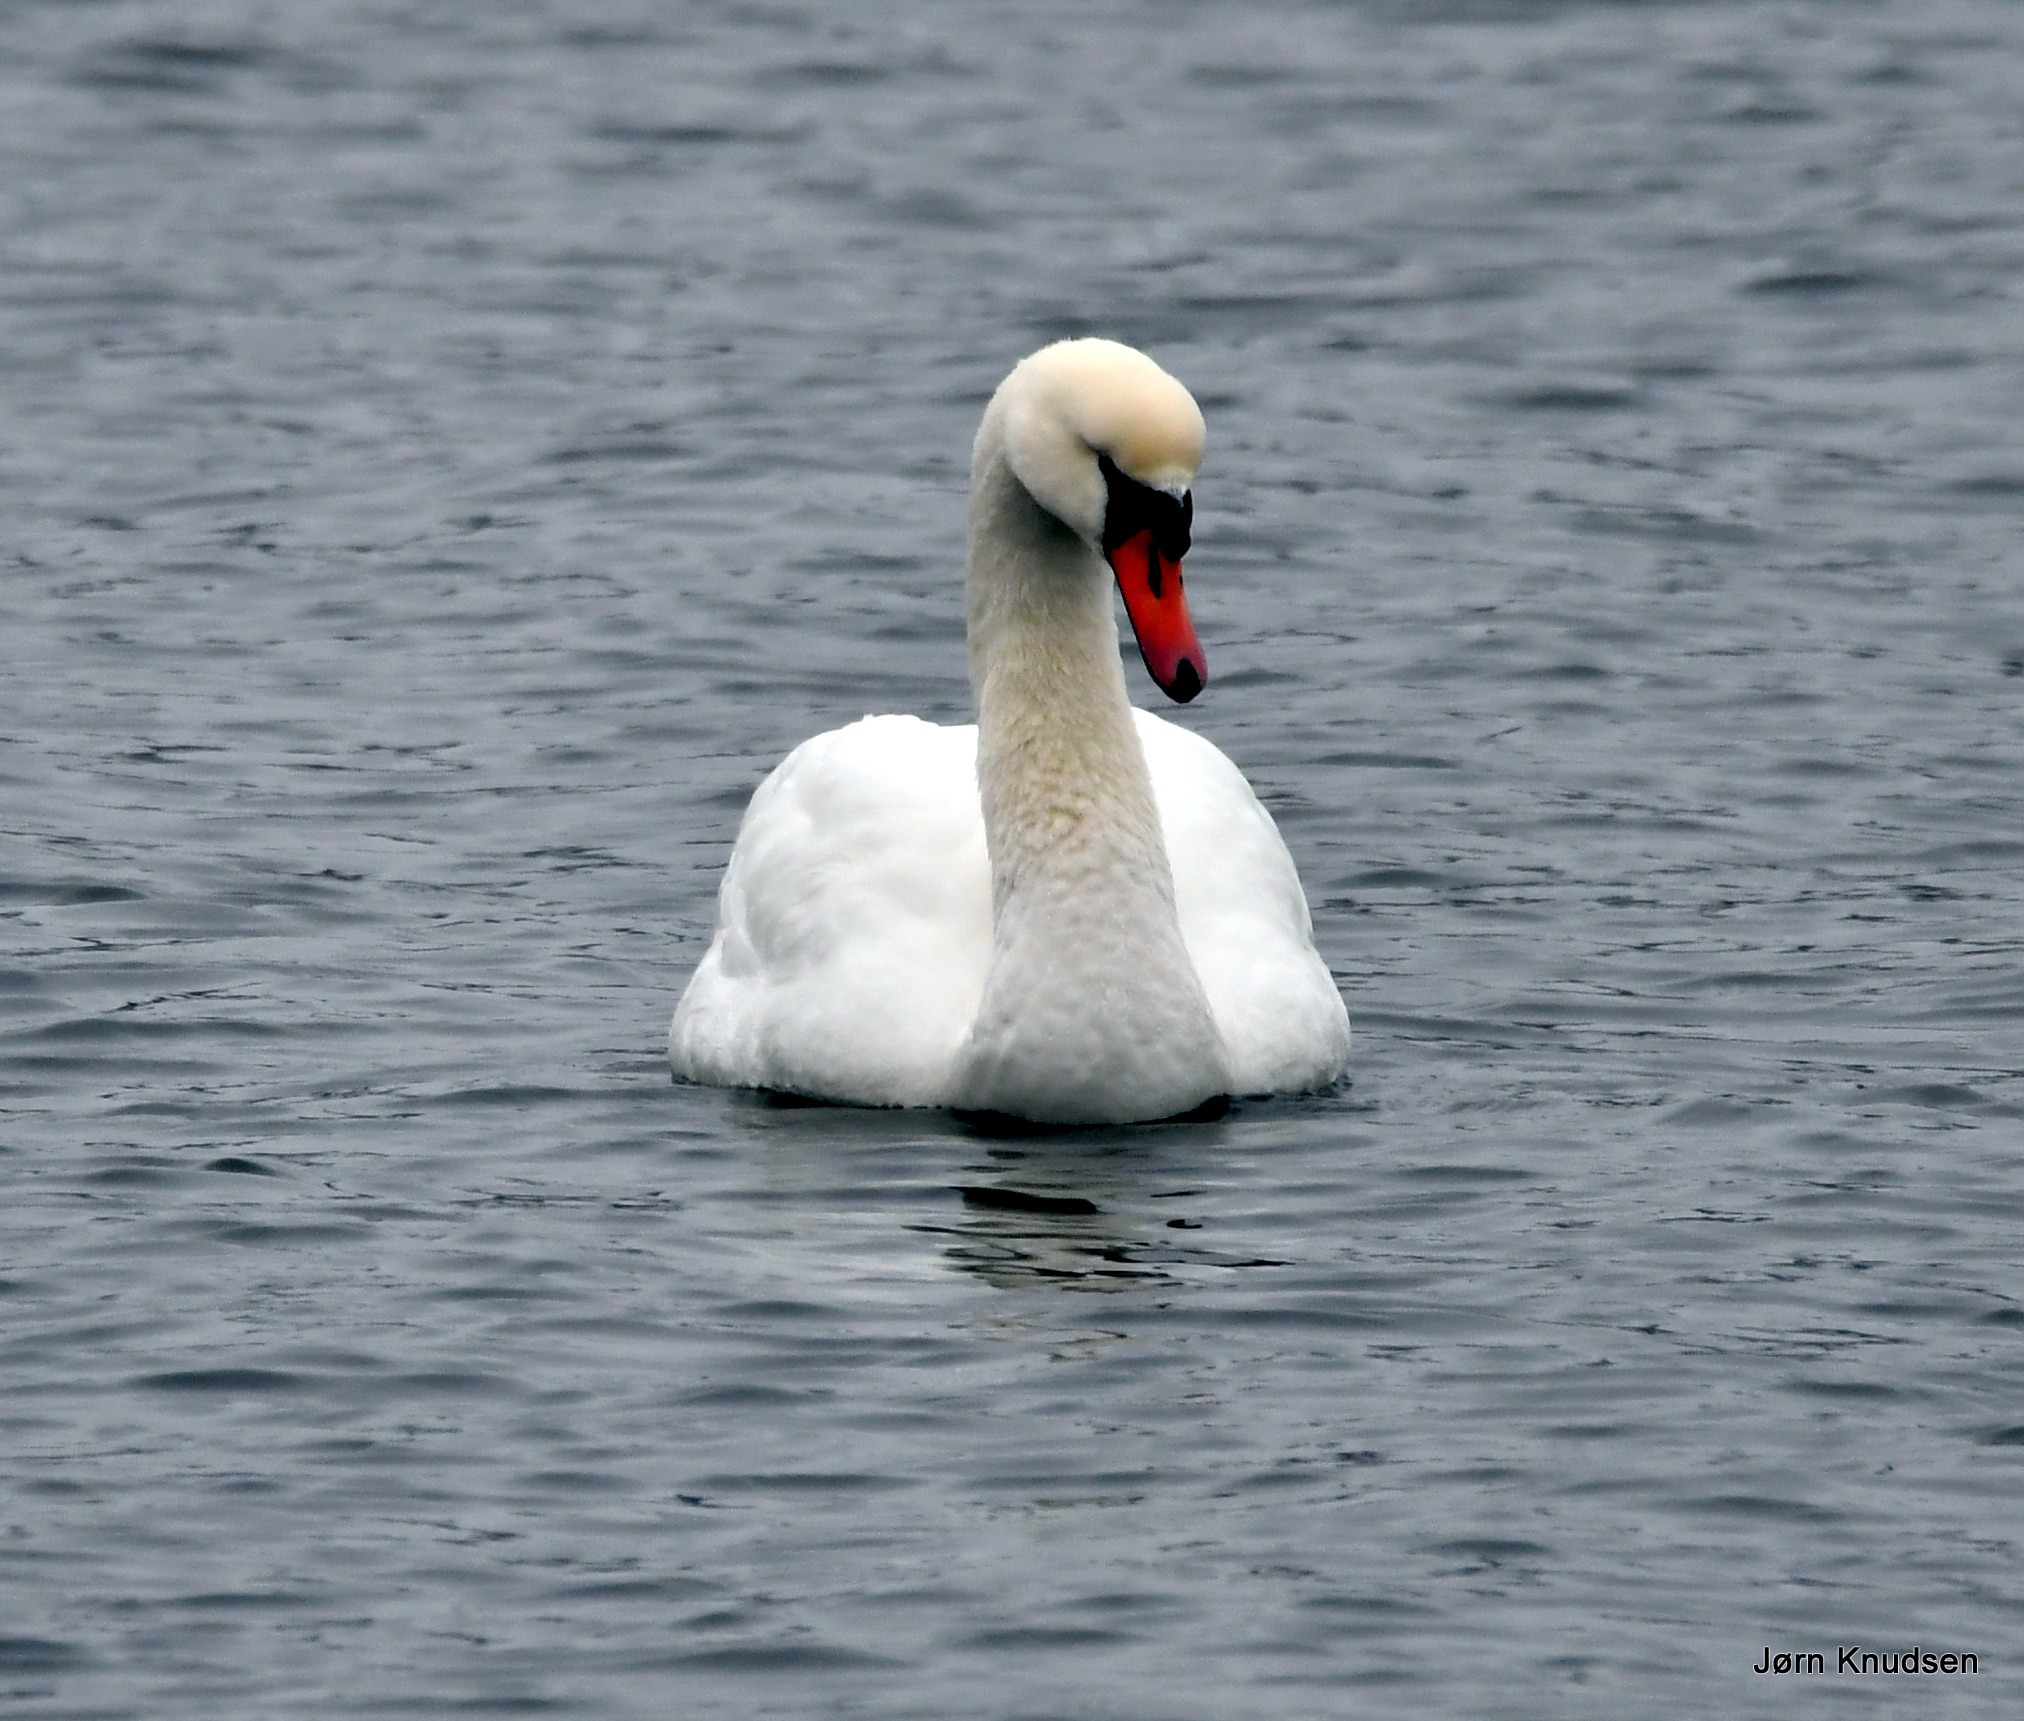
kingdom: Animalia
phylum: Chordata
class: Aves
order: Anseriformes
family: Anatidae
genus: Cygnus
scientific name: Cygnus olor
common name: Knopsvane
